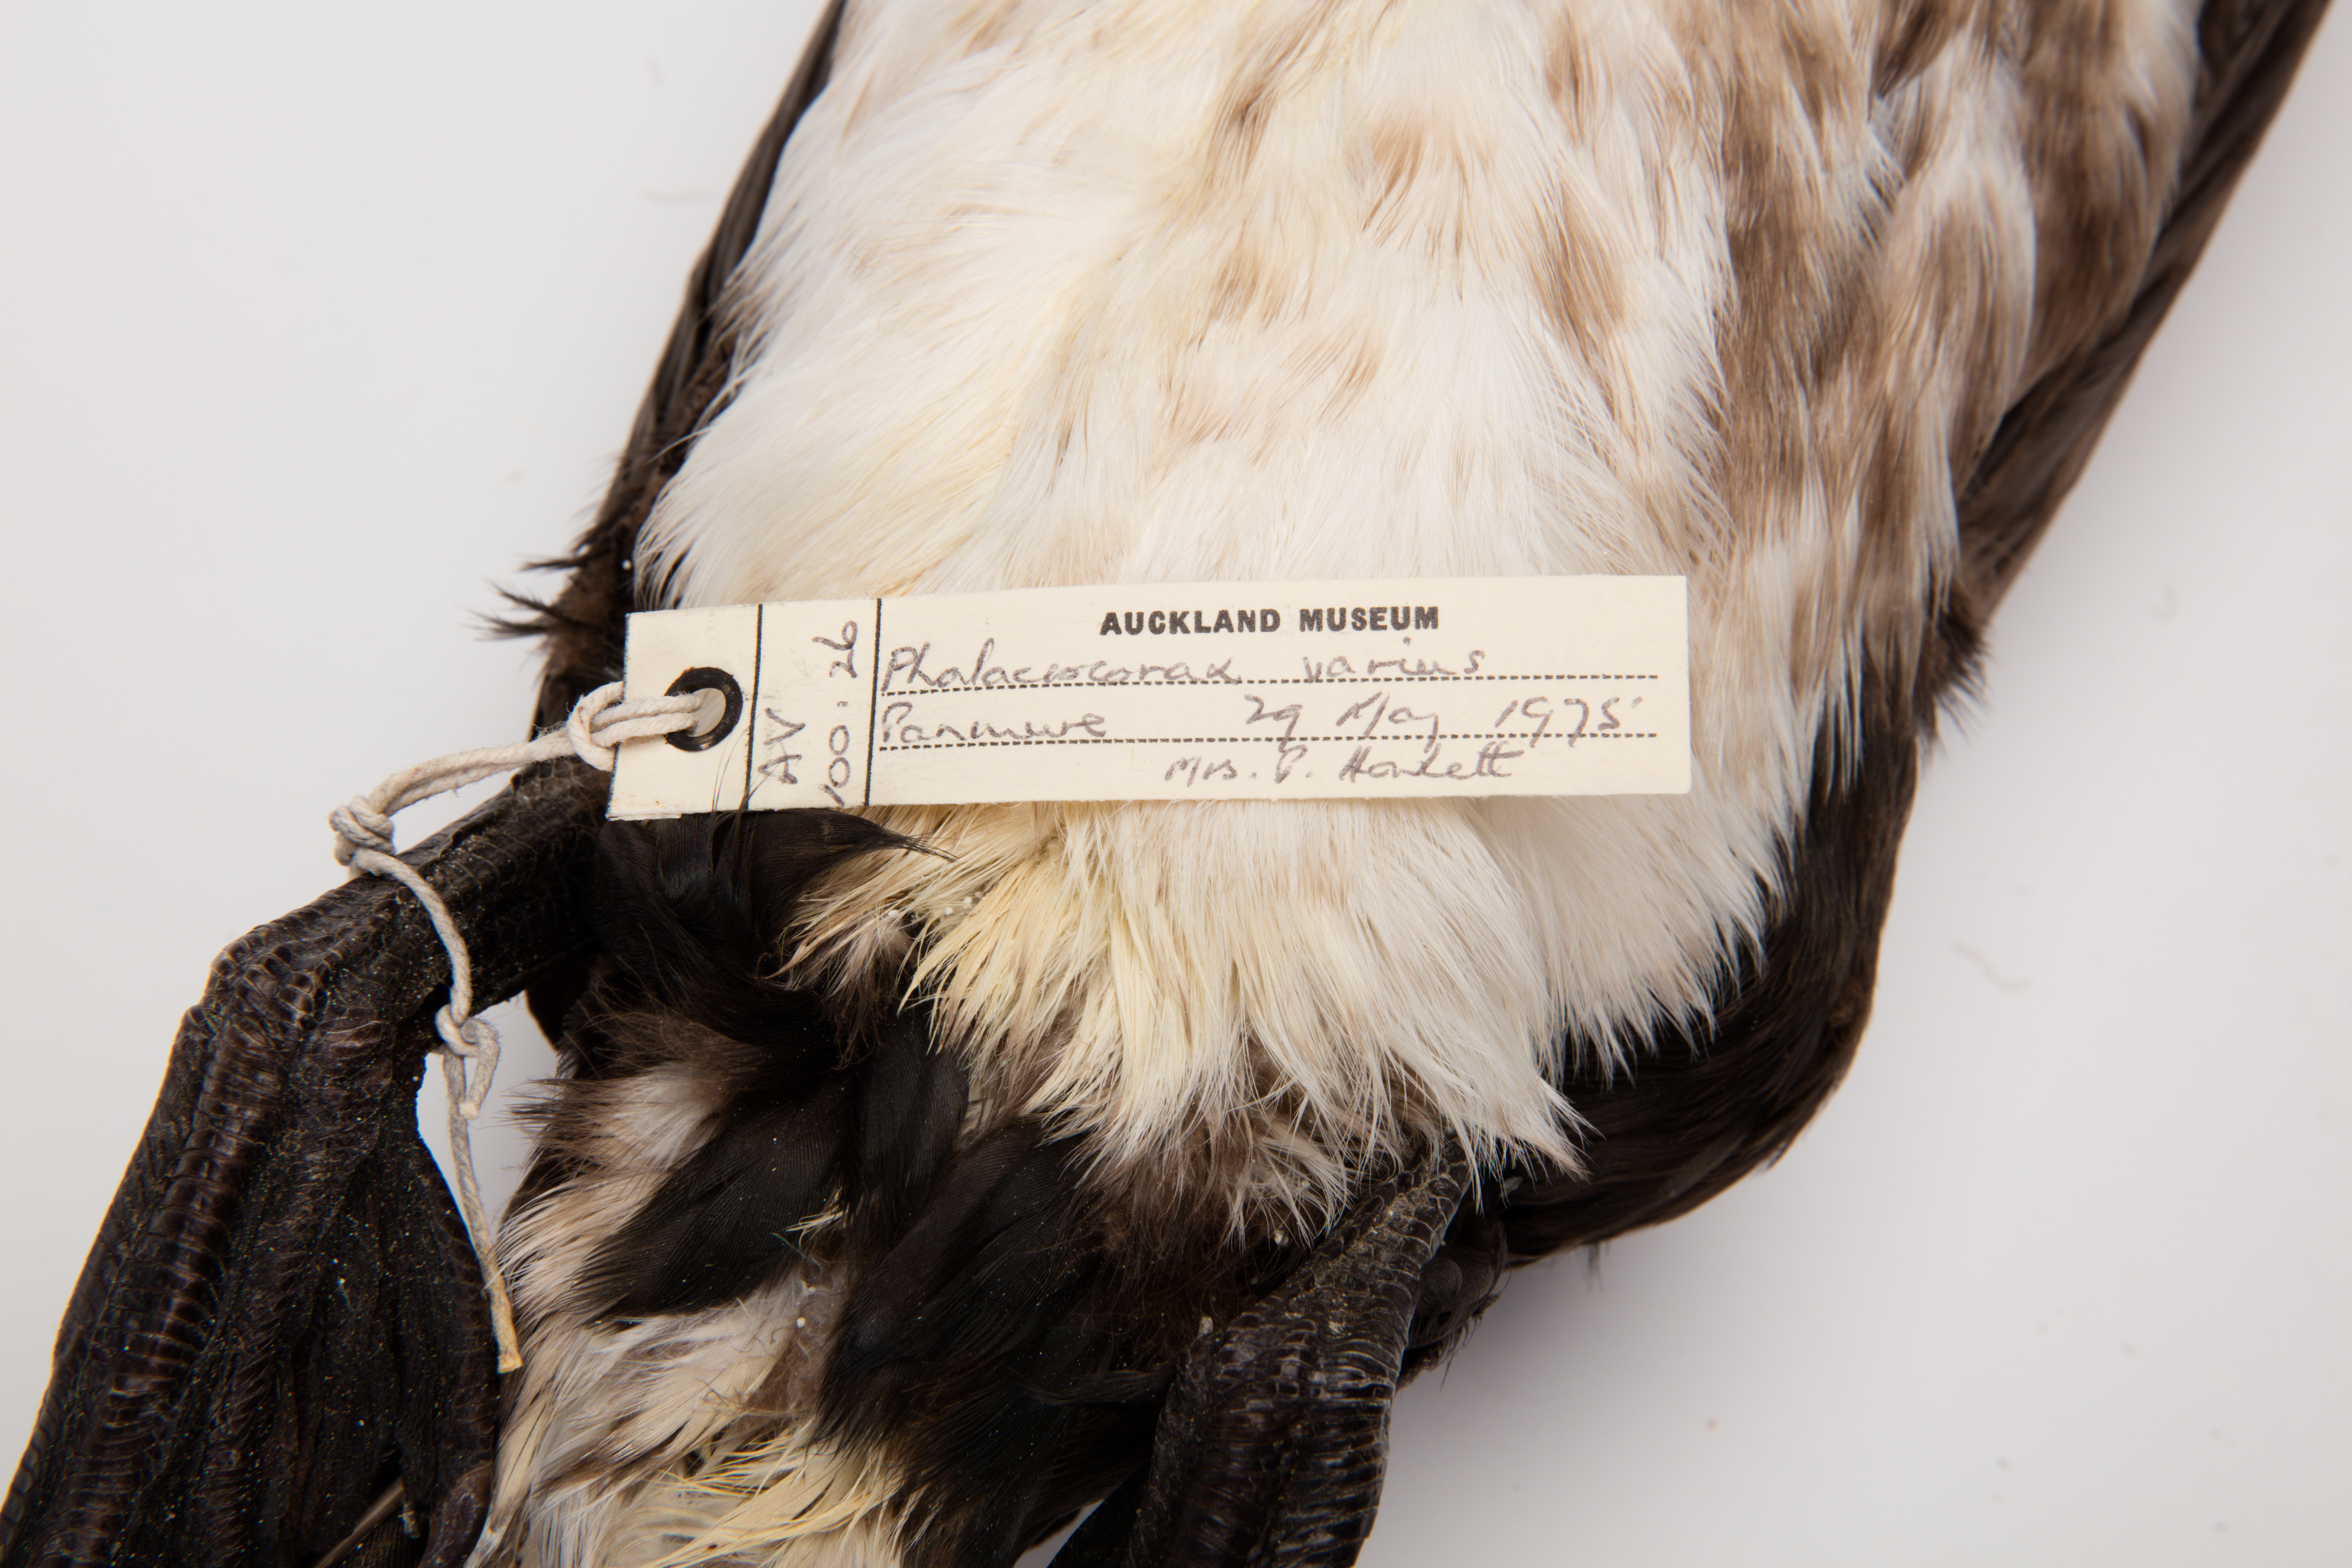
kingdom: Animalia
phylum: Chordata
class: Aves
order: Suliformes
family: Phalacrocoracidae
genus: Phalacrocorax
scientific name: Phalacrocorax varius
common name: Pied cormorant
